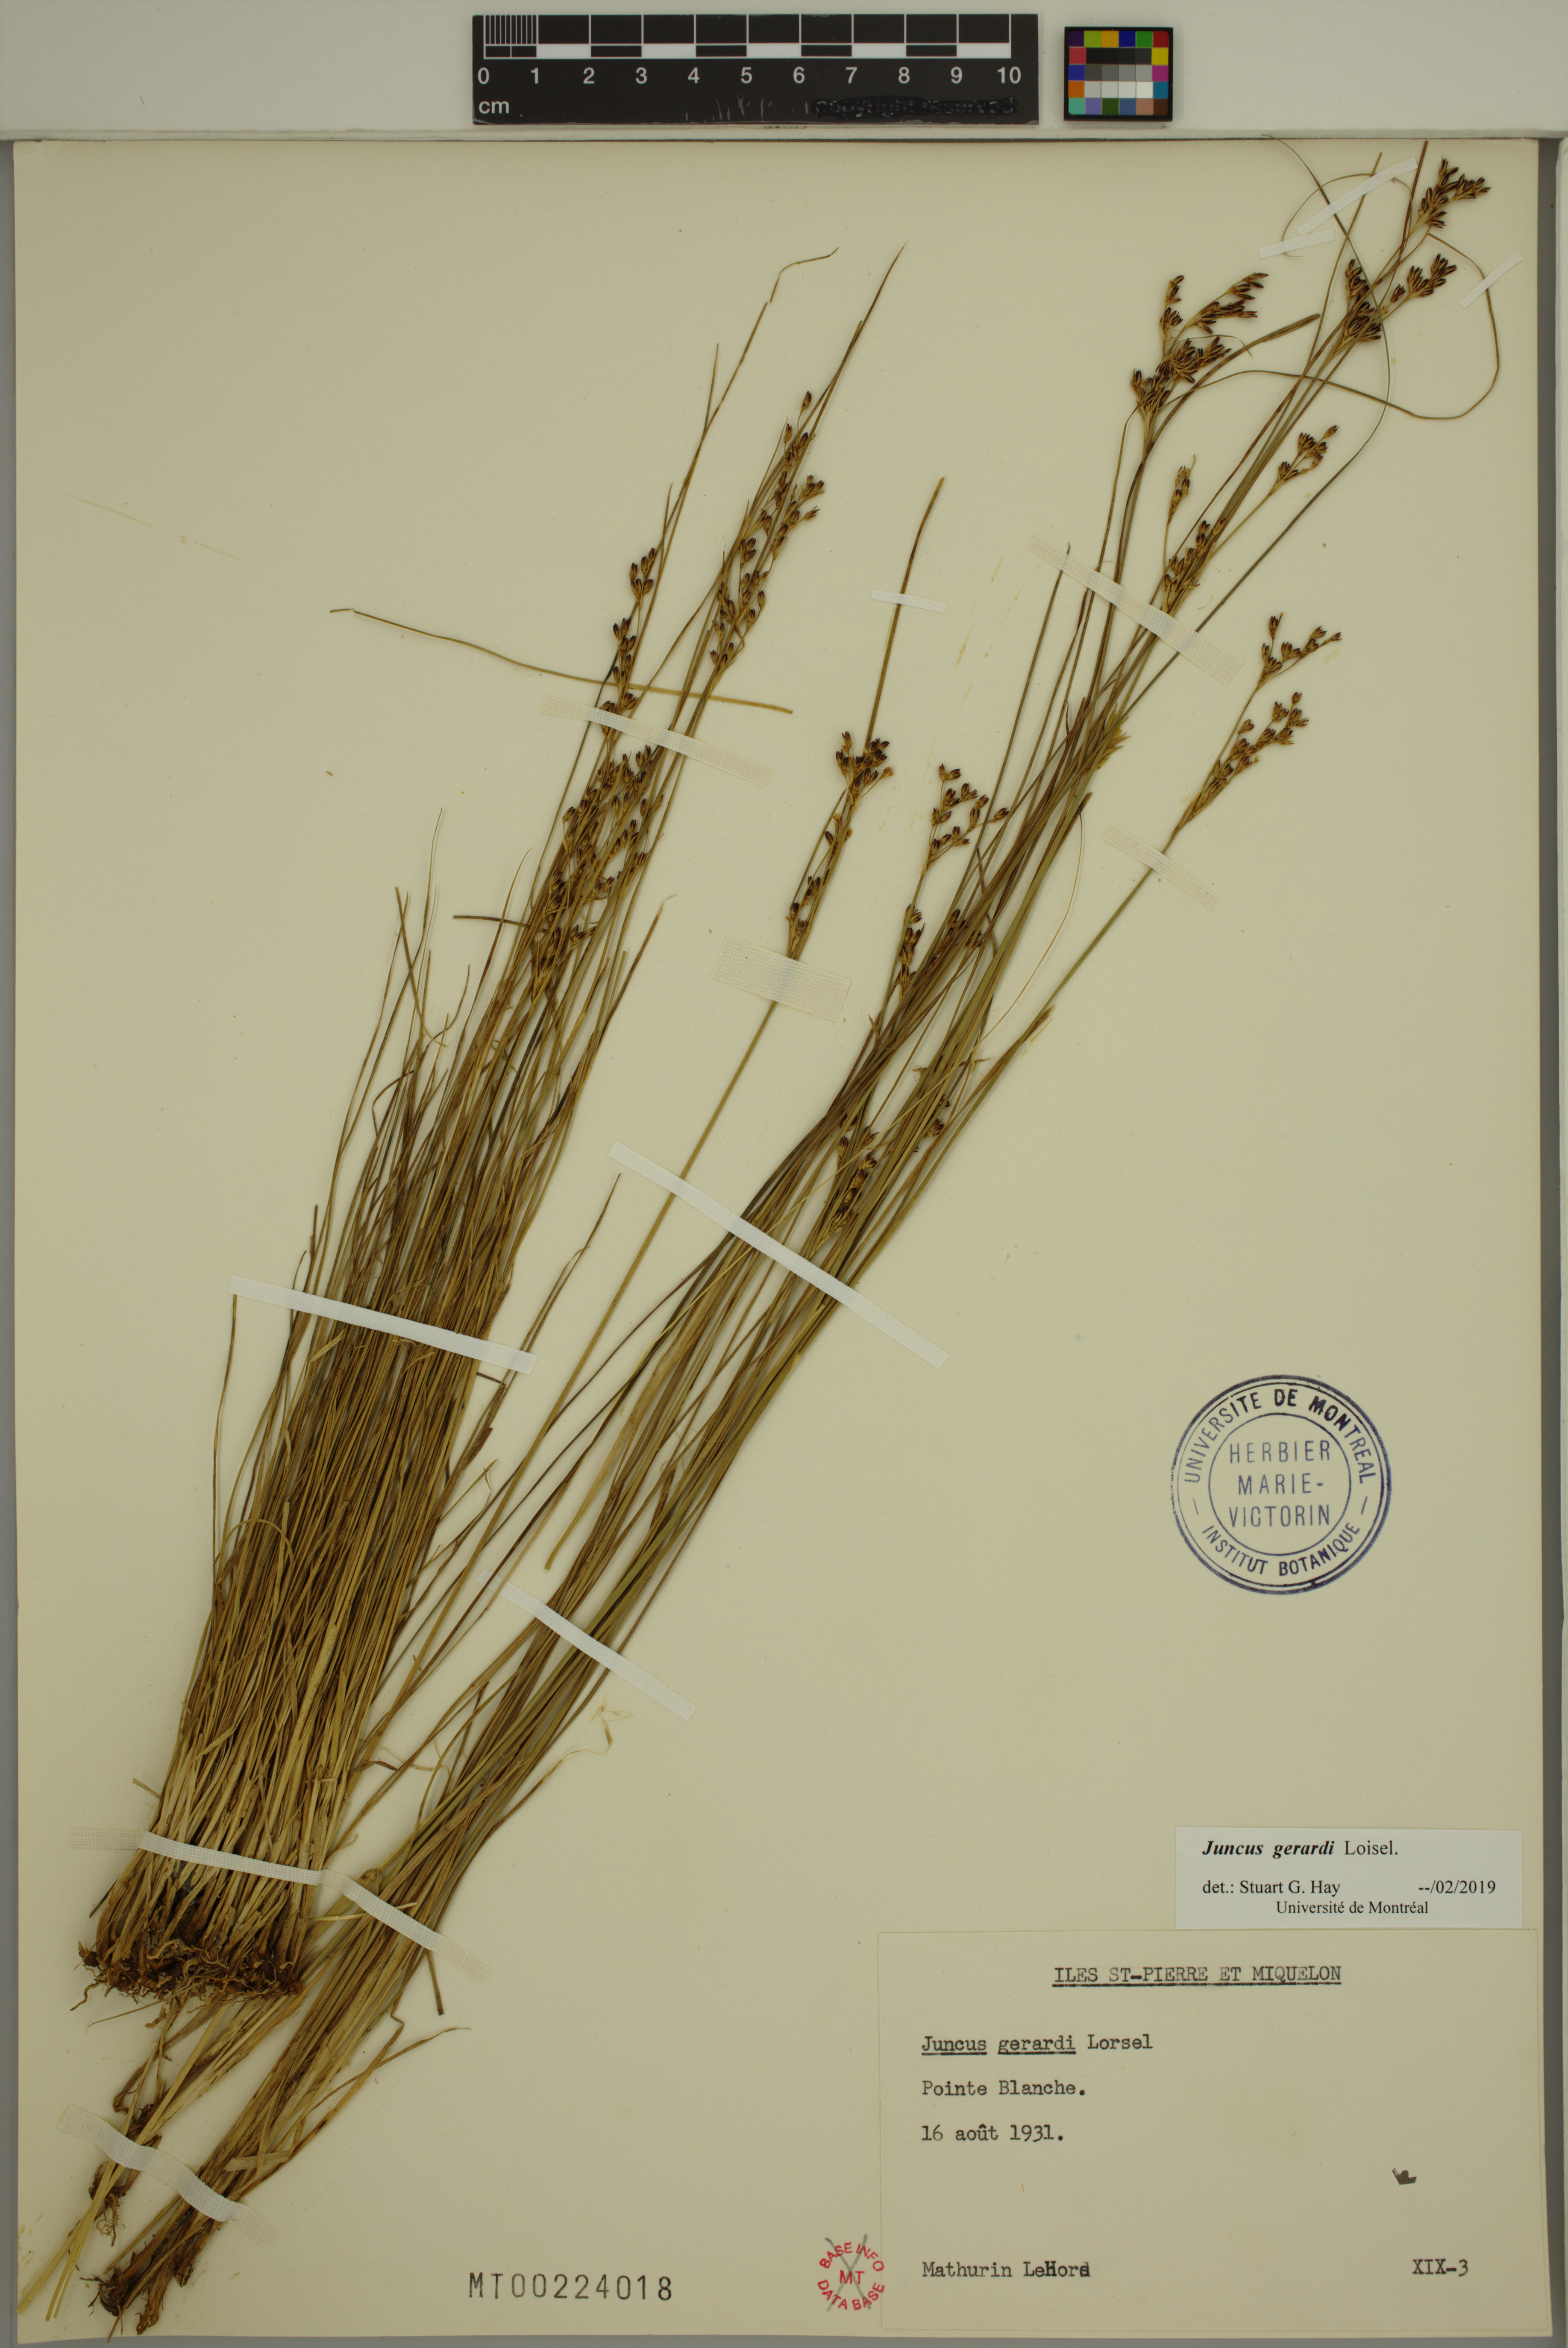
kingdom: Plantae
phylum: Tracheophyta
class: Liliopsida
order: Poales
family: Juncaceae
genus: Juncus
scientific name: Juncus gerardi
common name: Saltmarsh rush
